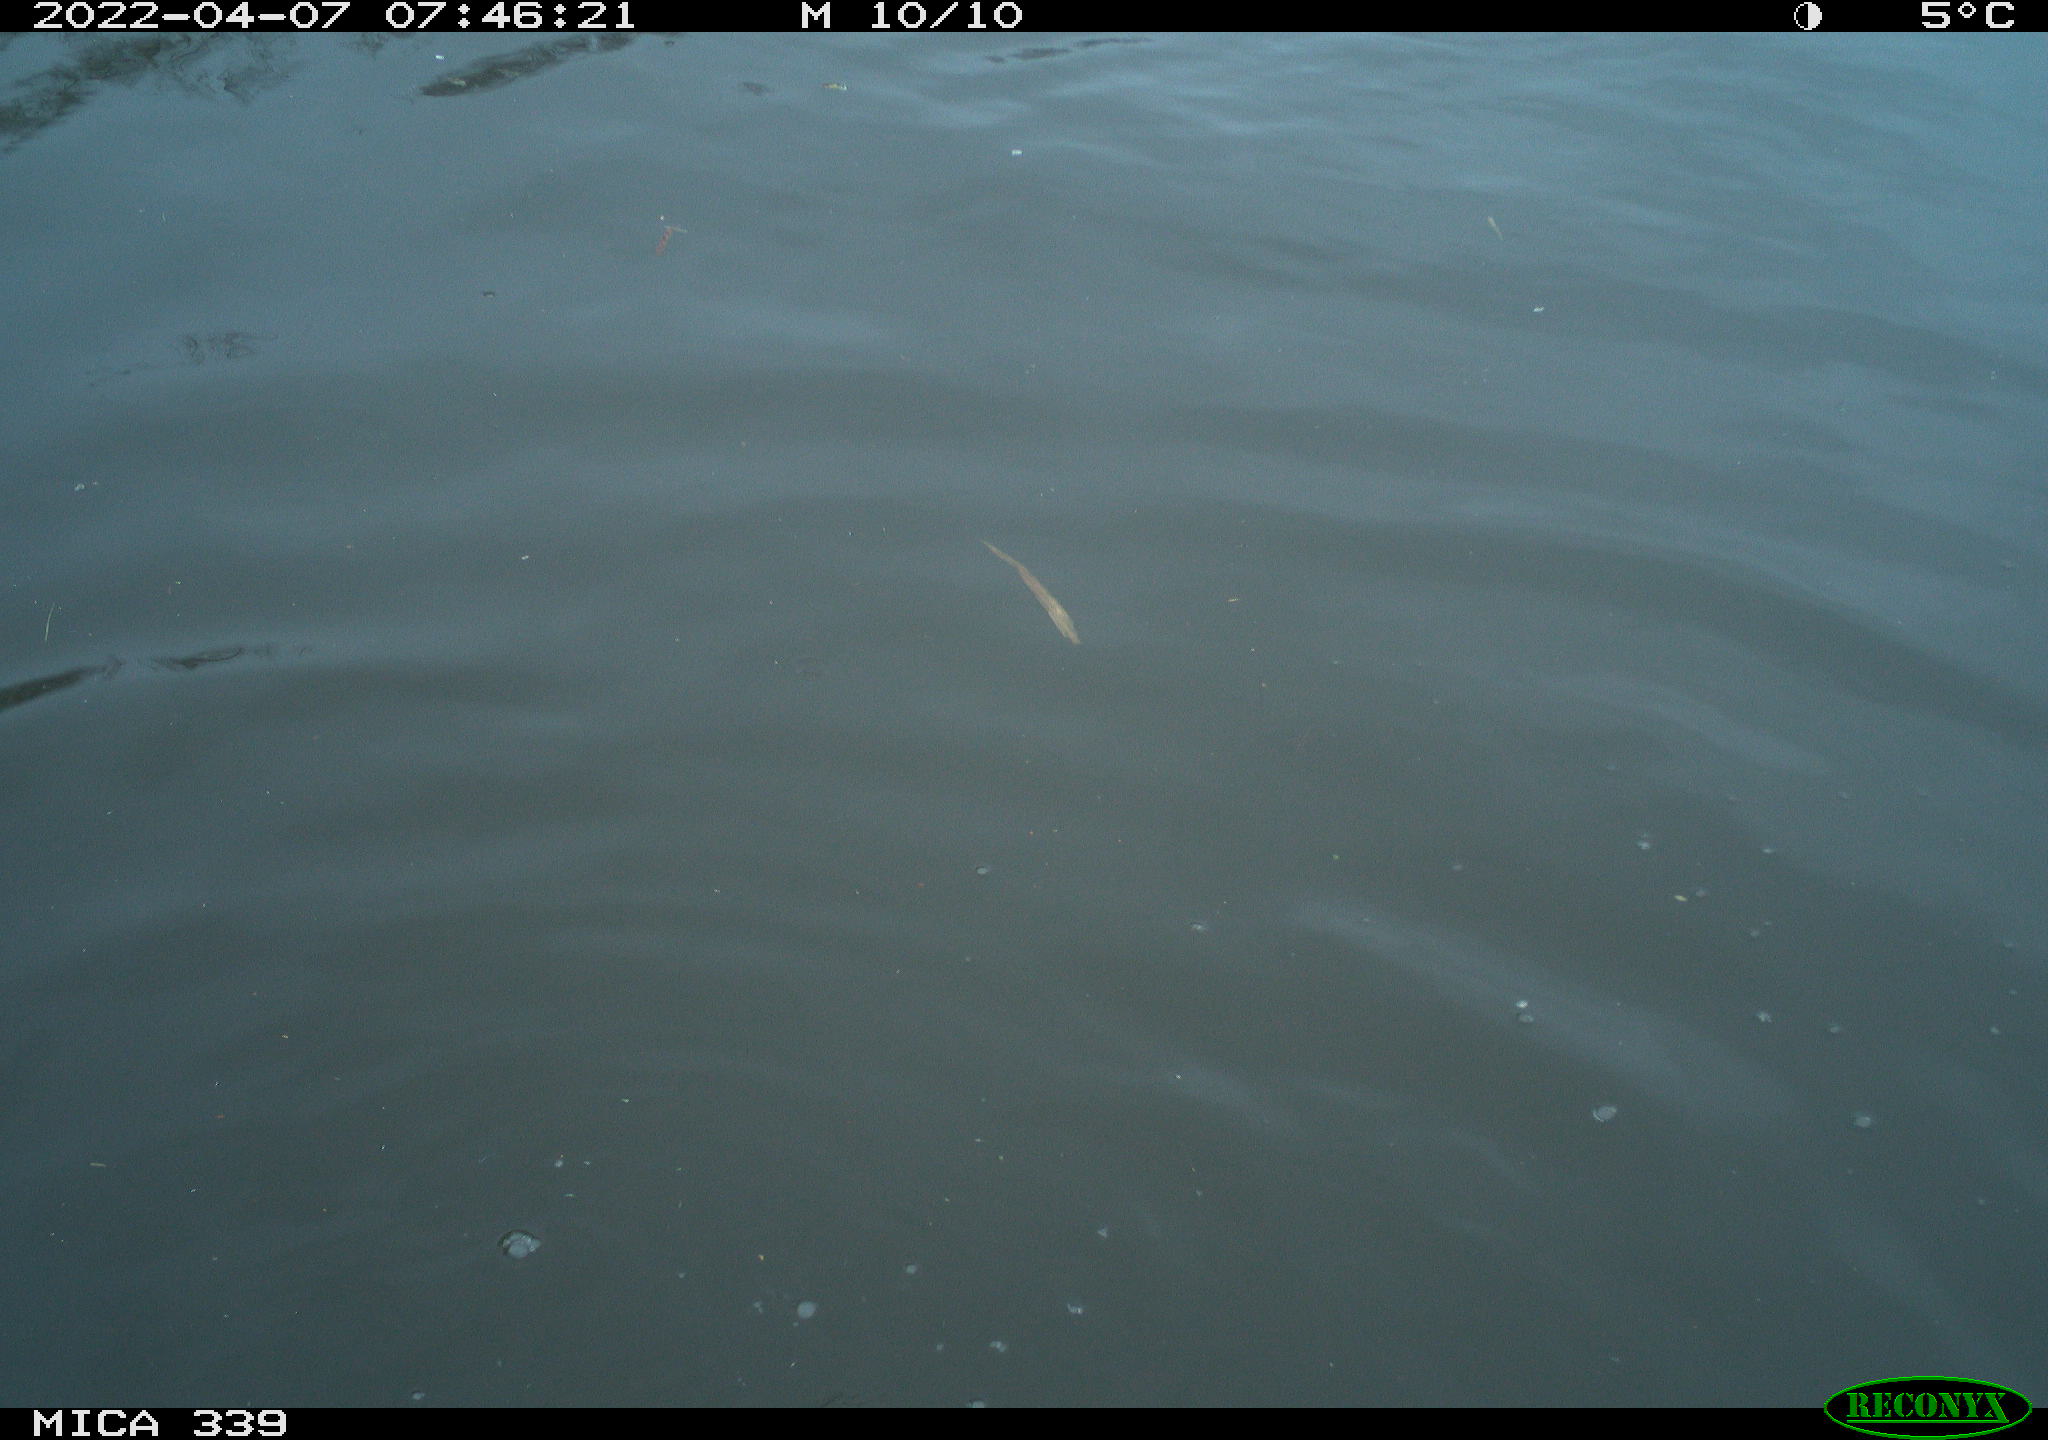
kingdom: Animalia
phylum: Chordata
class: Aves
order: Suliformes
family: Phalacrocoracidae
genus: Phalacrocorax
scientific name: Phalacrocorax carbo
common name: Great cormorant
